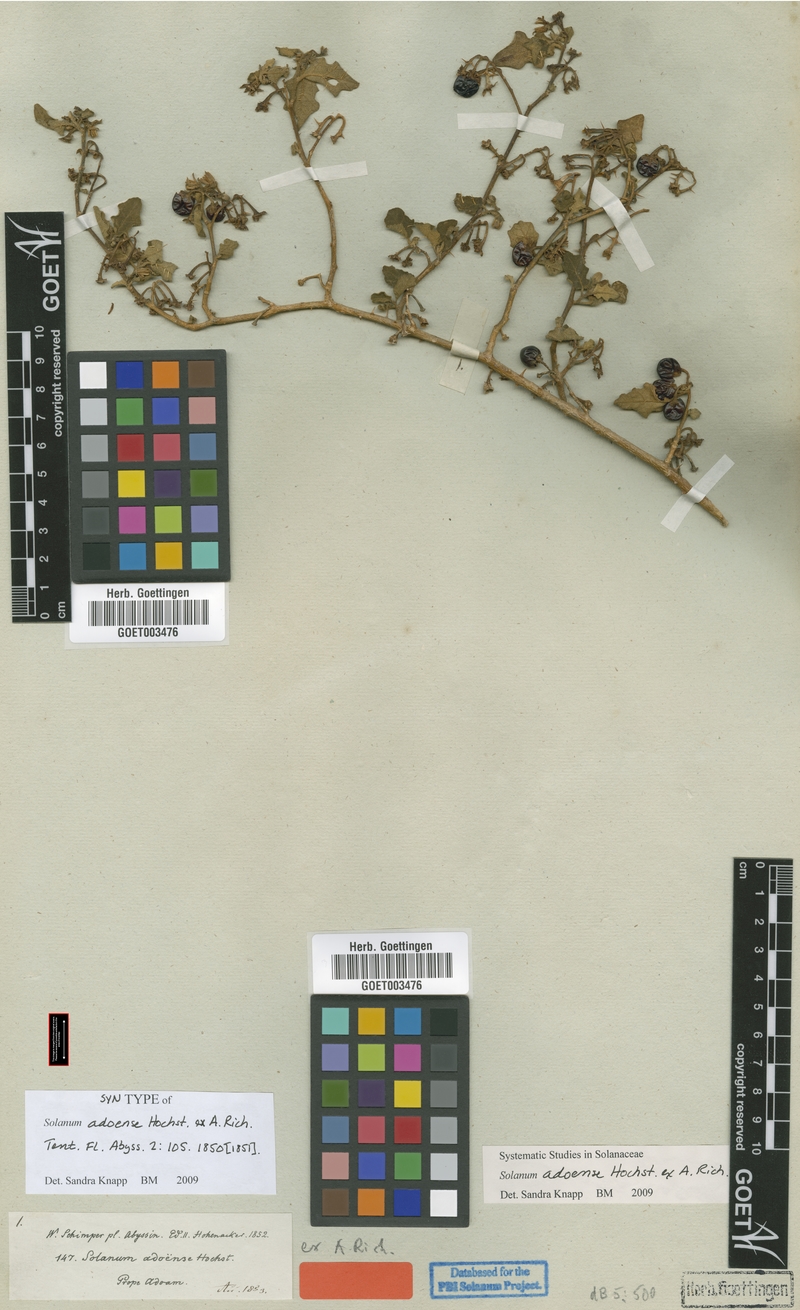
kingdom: Plantae
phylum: Tracheophyta
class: Magnoliopsida
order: Solanales
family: Solanaceae
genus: Solanum
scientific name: Solanum adoense
